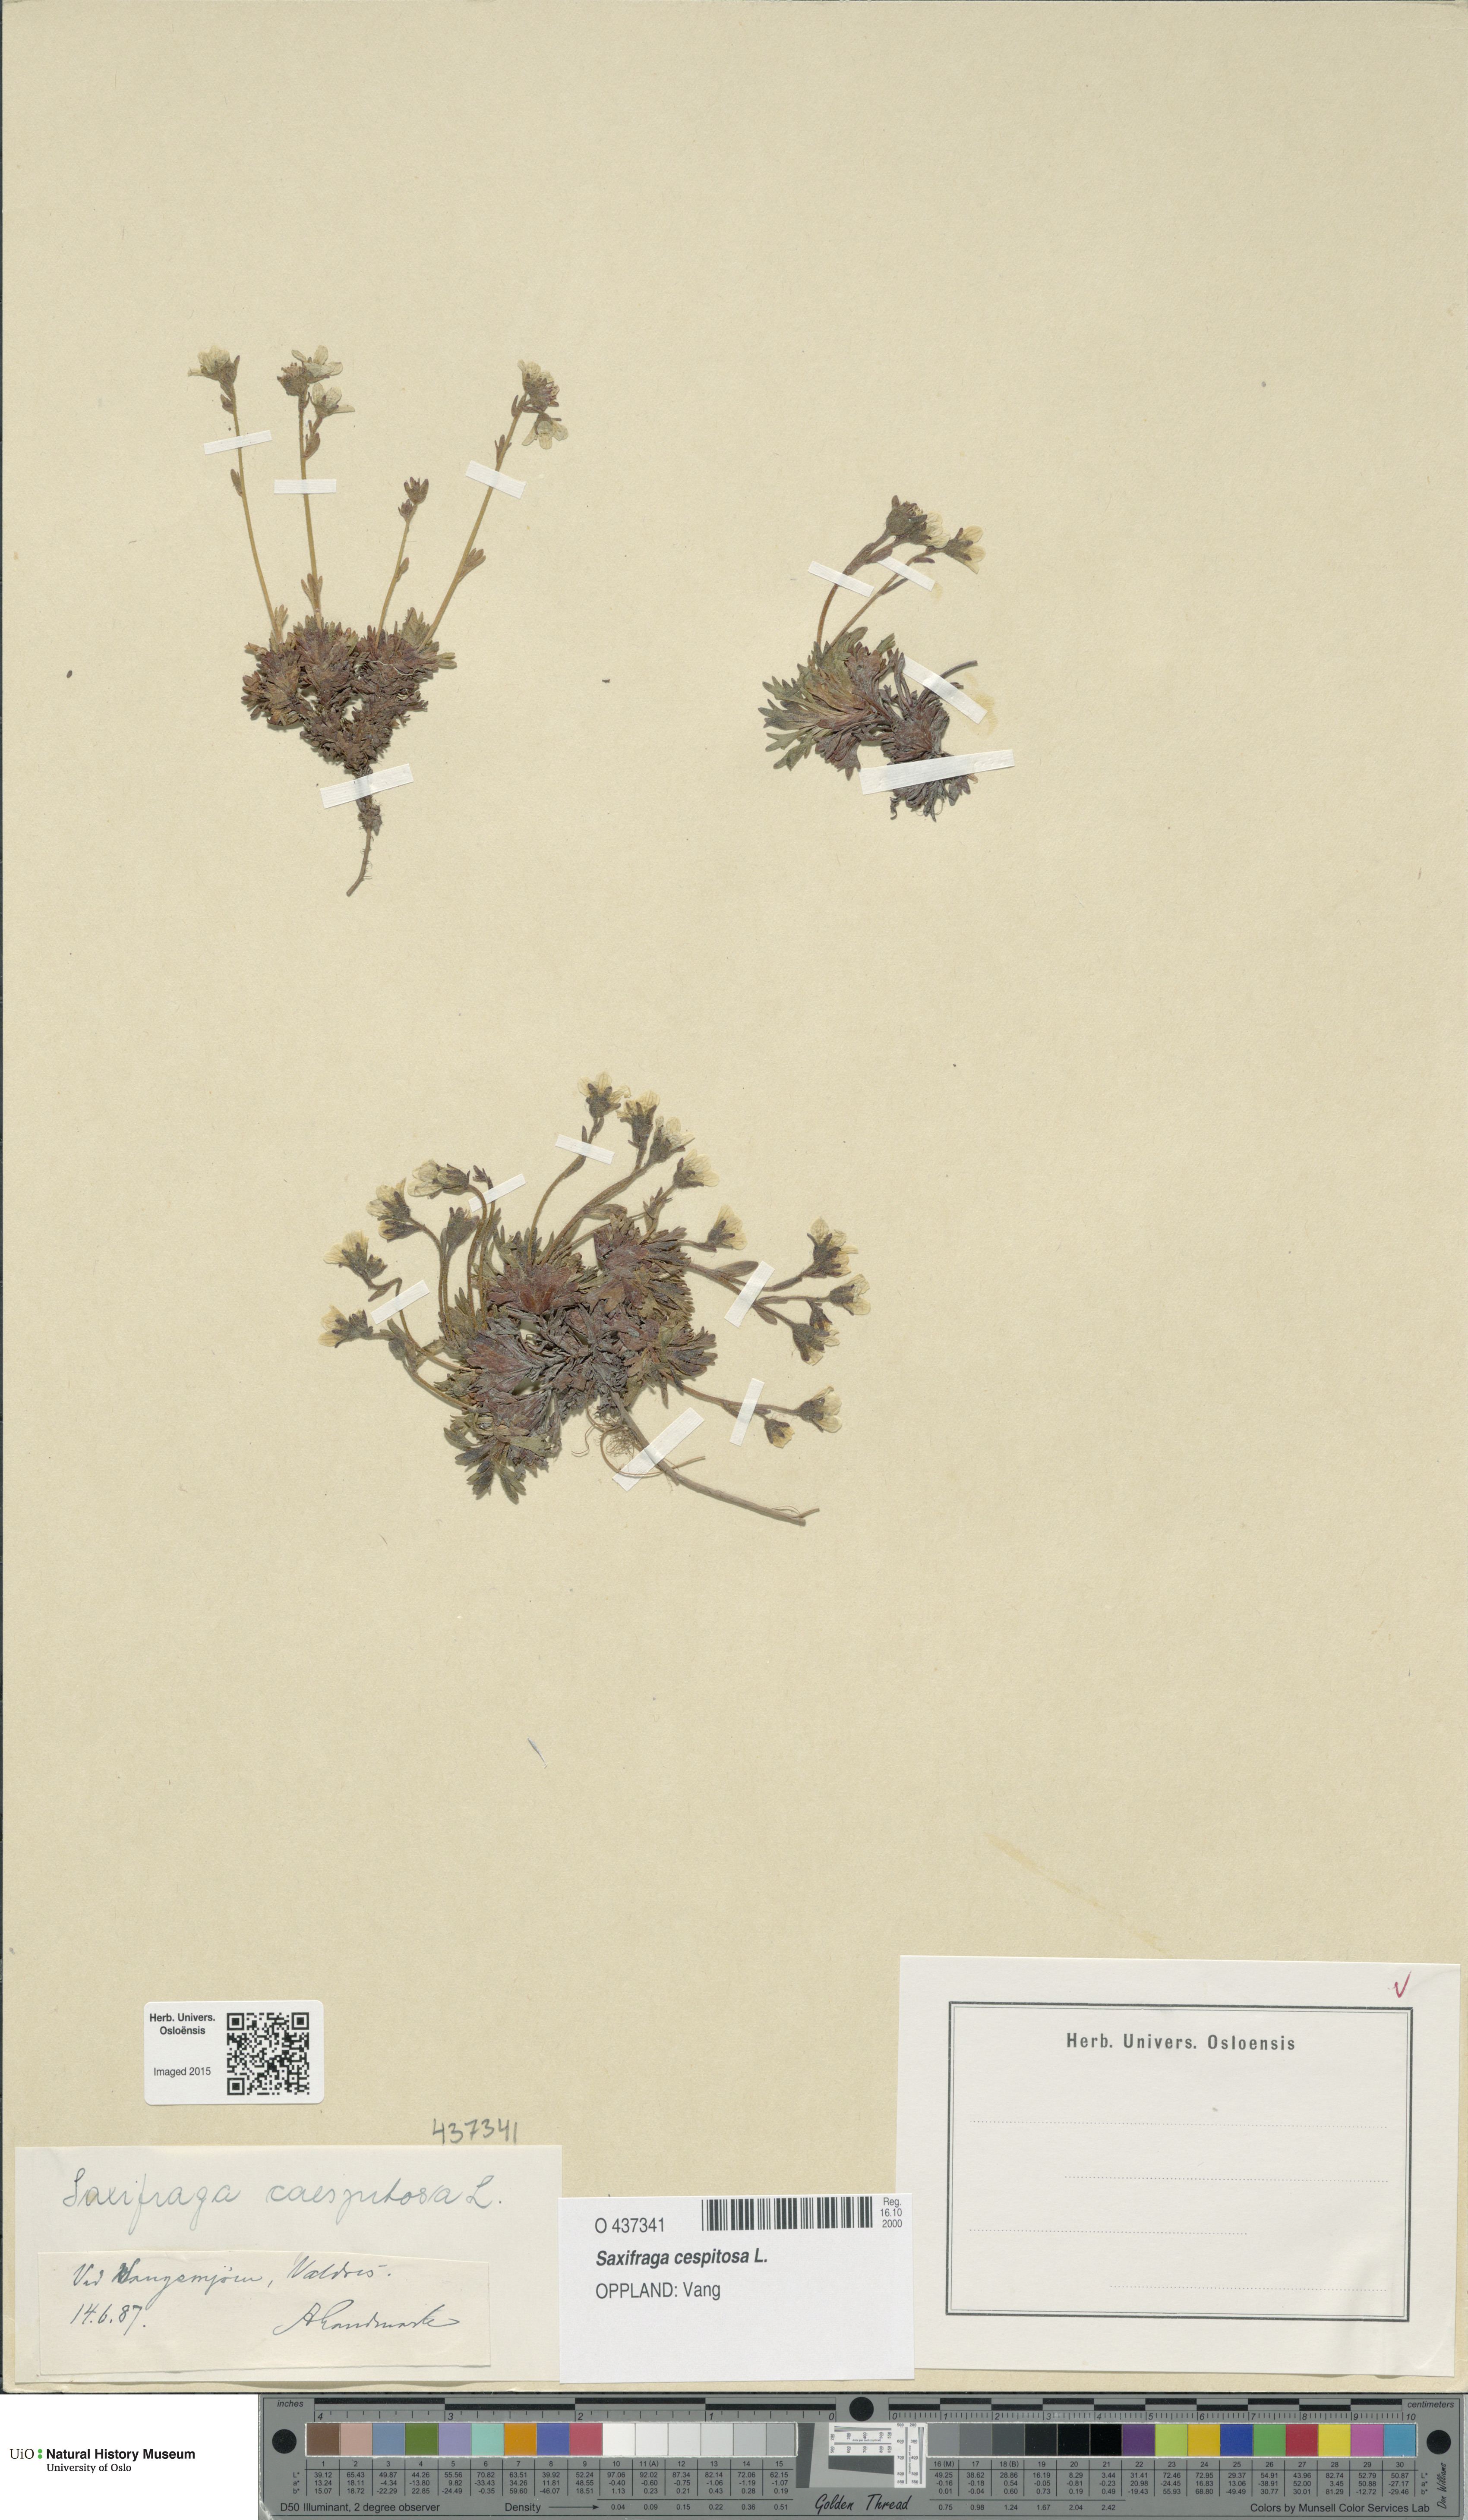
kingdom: Plantae
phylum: Tracheophyta
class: Magnoliopsida
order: Saxifragales
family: Saxifragaceae
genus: Saxifraga
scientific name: Saxifraga cespitosa
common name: Tufted saxifrage
